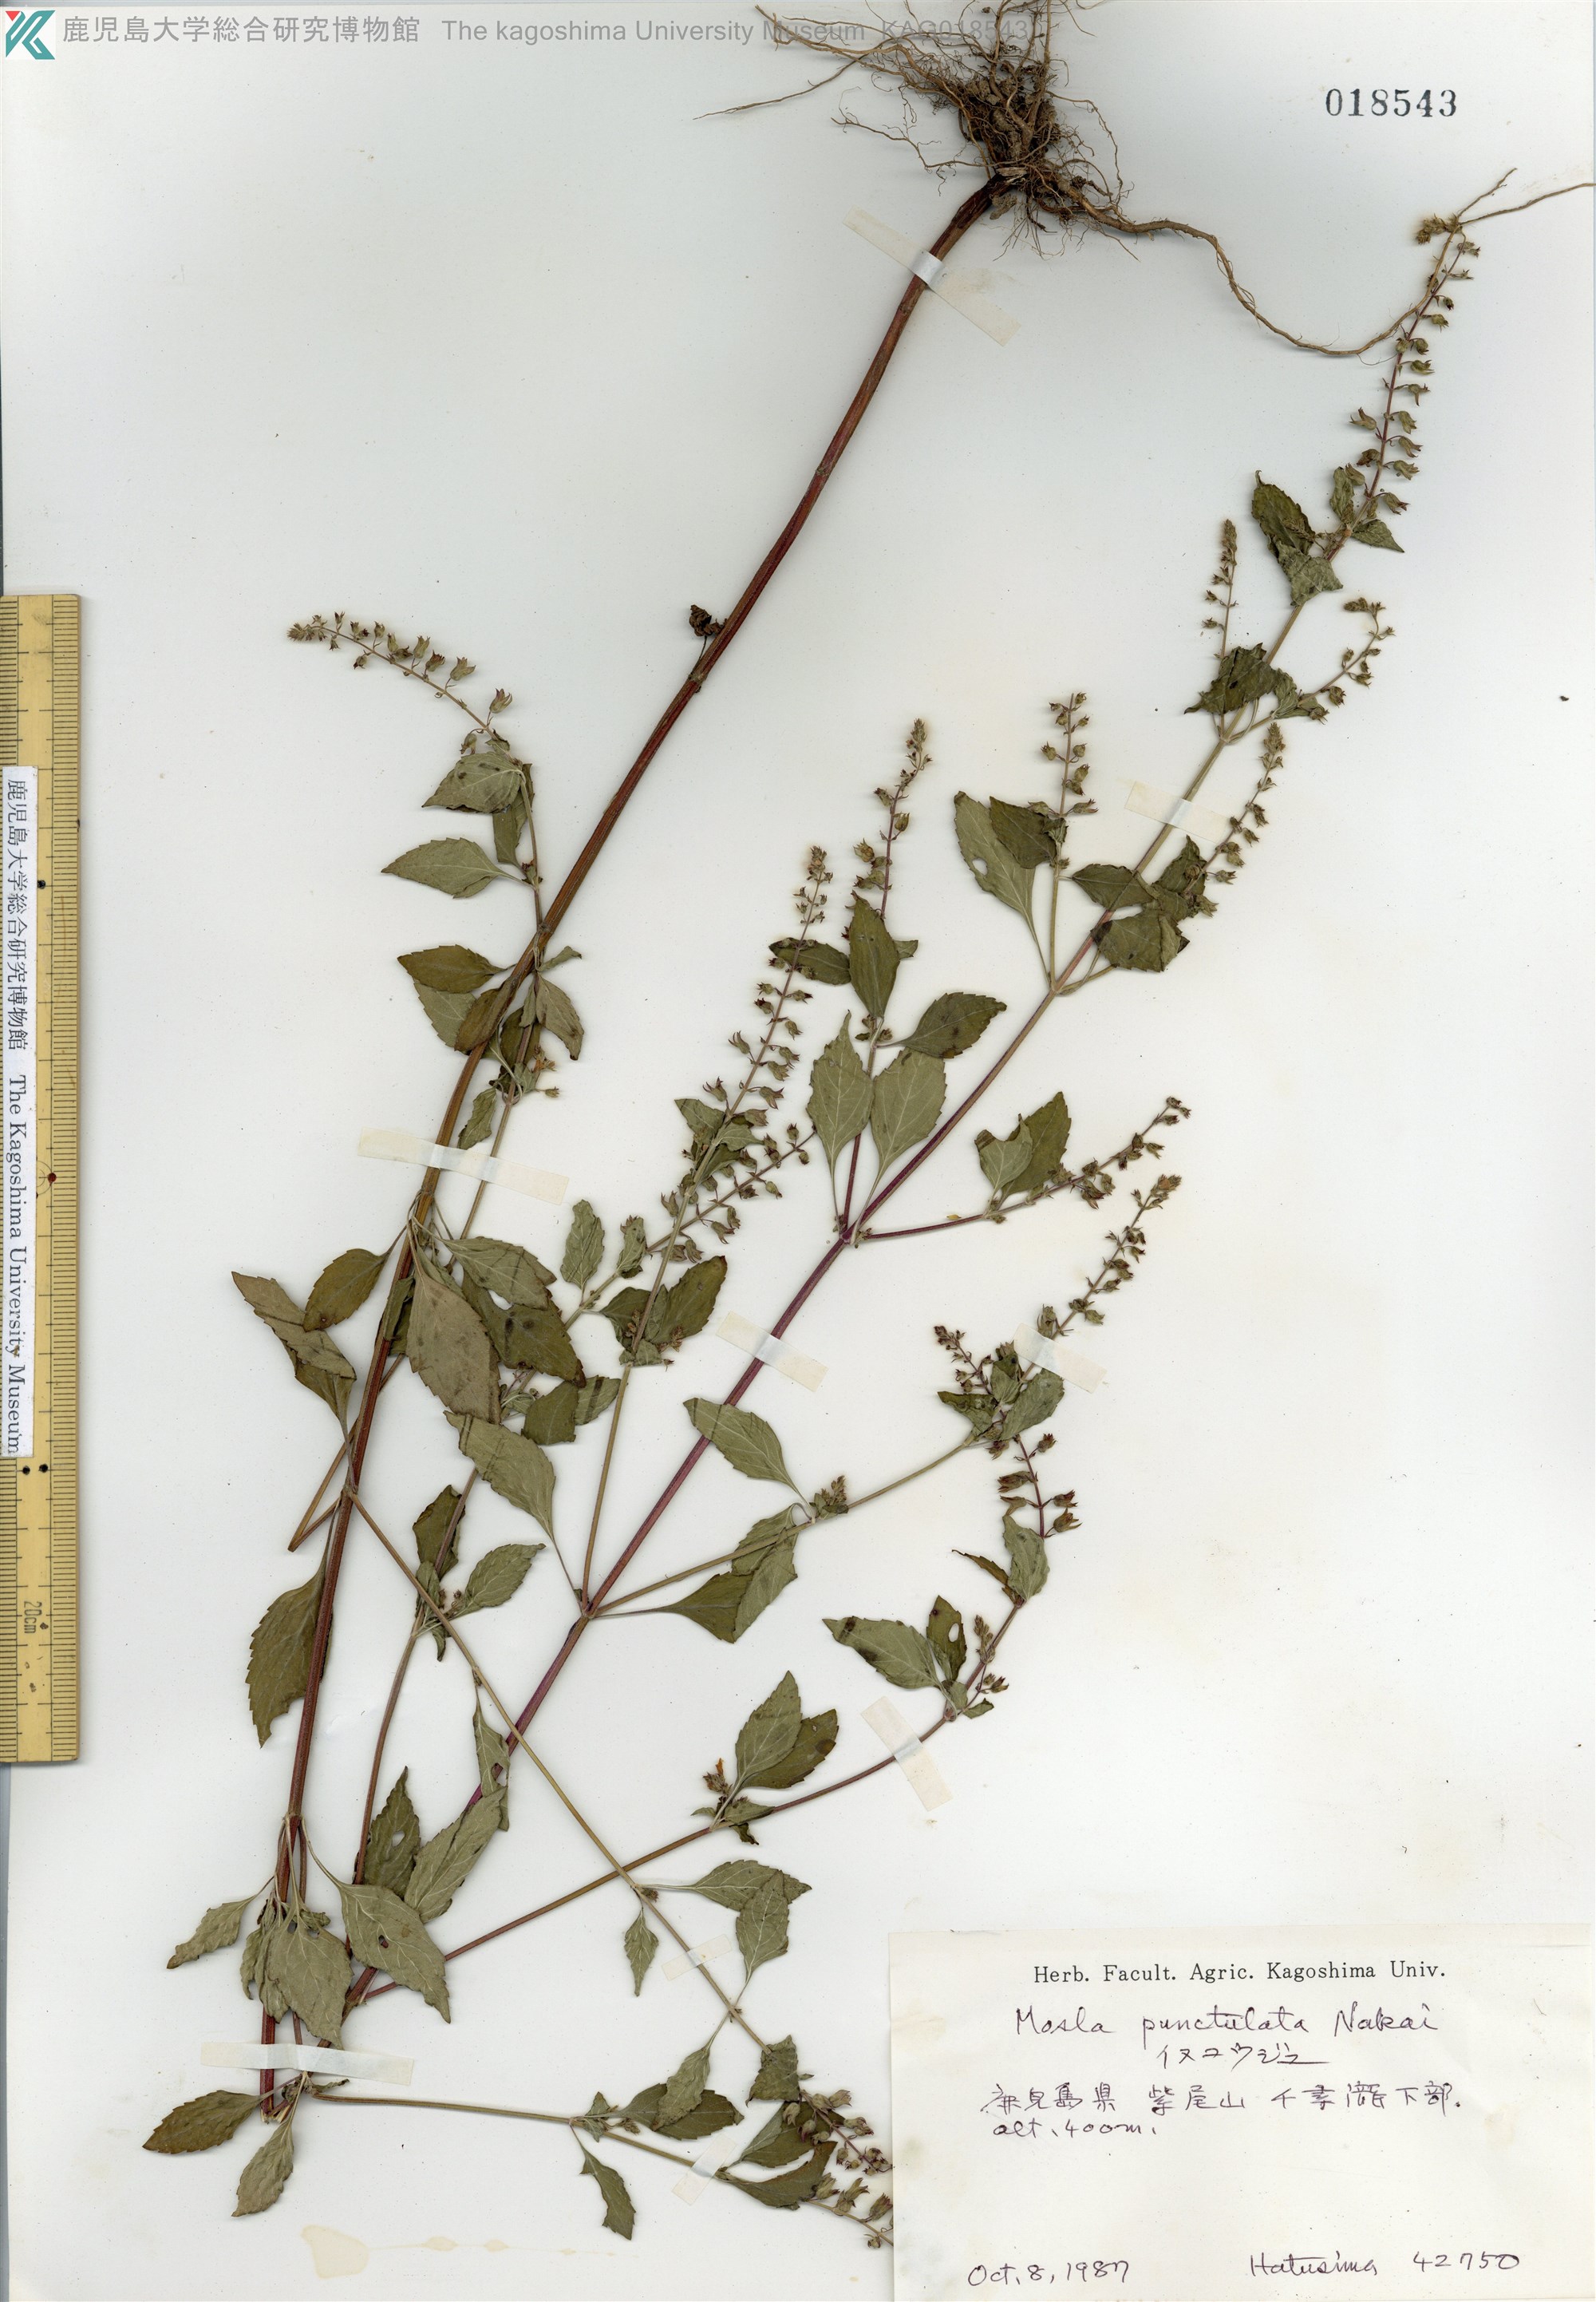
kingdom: Plantae
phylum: Tracheophyta
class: Magnoliopsida
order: Lamiales
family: Lamiaceae
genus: Mosla
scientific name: Mosla scabra
